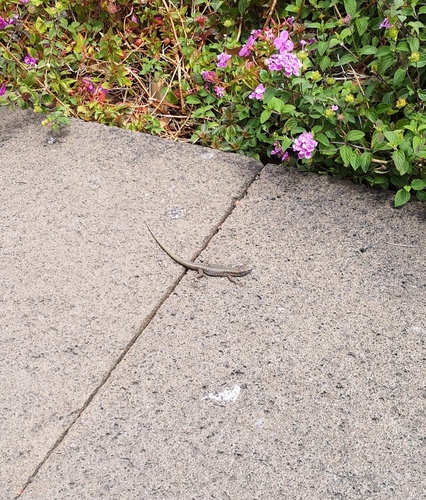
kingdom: Animalia
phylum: Chordata
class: Squamata
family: Lacertidae
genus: Teira
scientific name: Teira dugesii
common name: Madeira lizard
